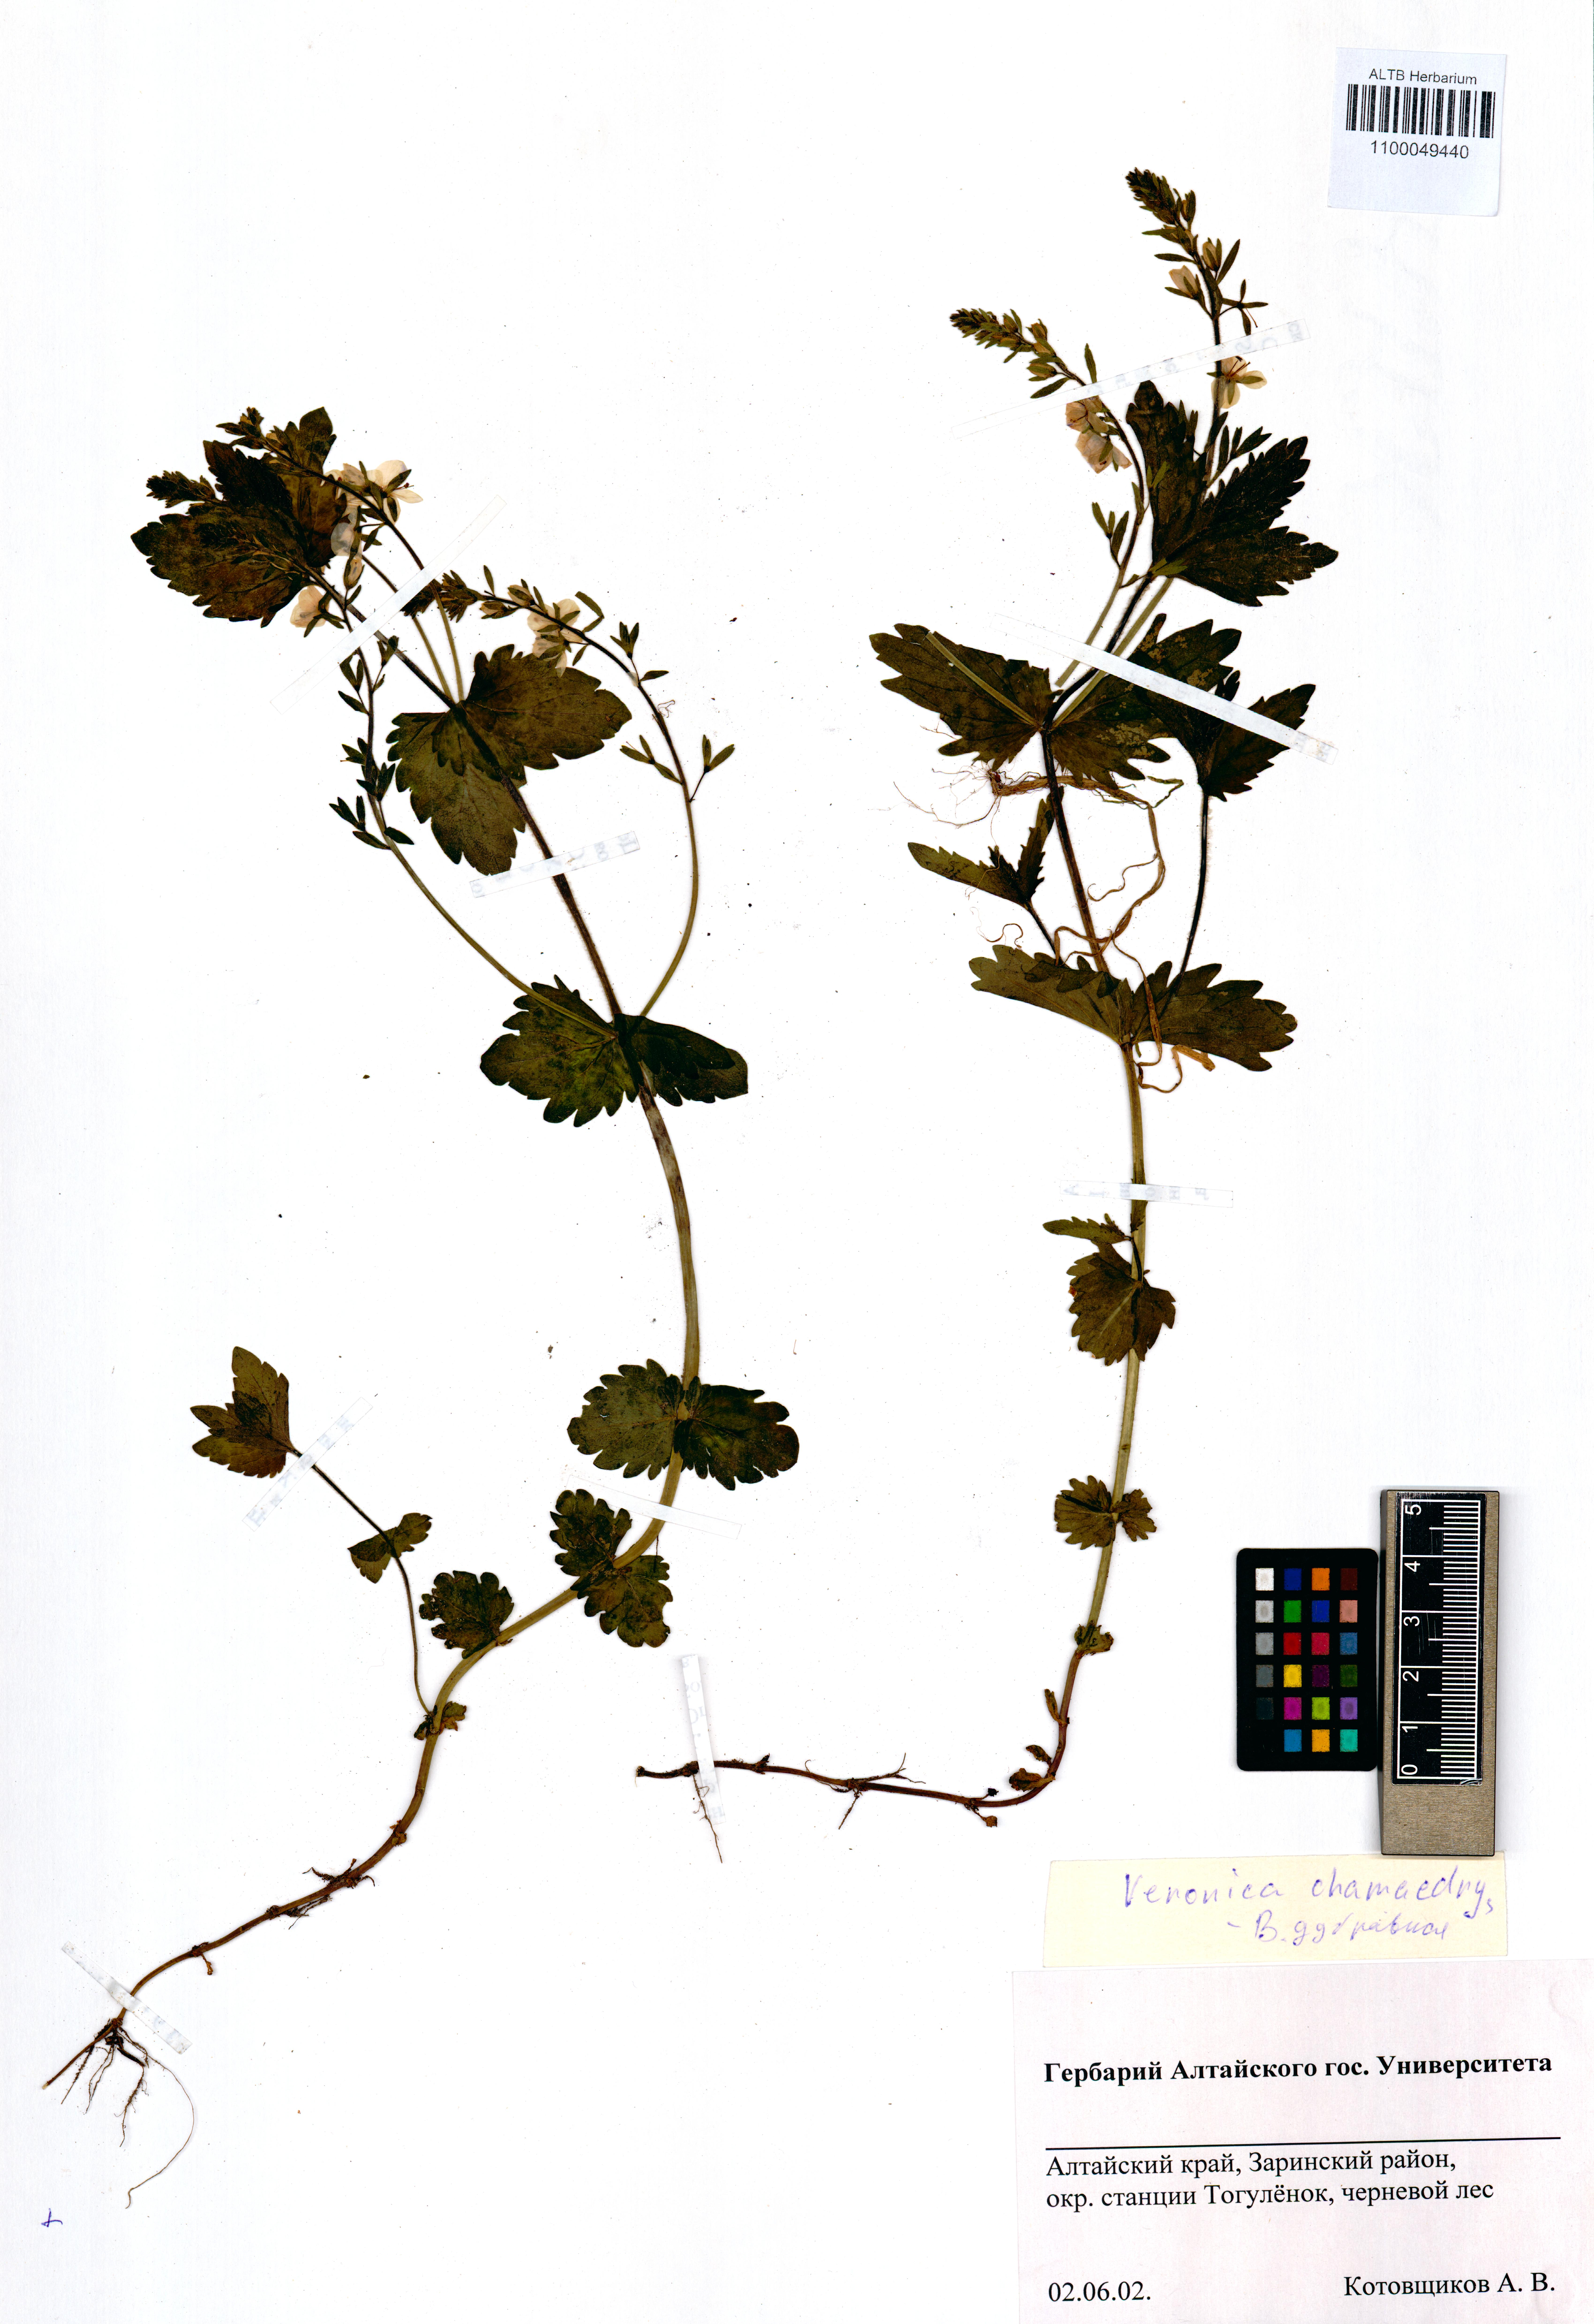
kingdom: Plantae
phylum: Tracheophyta
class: Magnoliopsida
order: Lamiales
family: Plantaginaceae
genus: Veronica
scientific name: Veronica chamaedrys
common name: Germander speedwell
